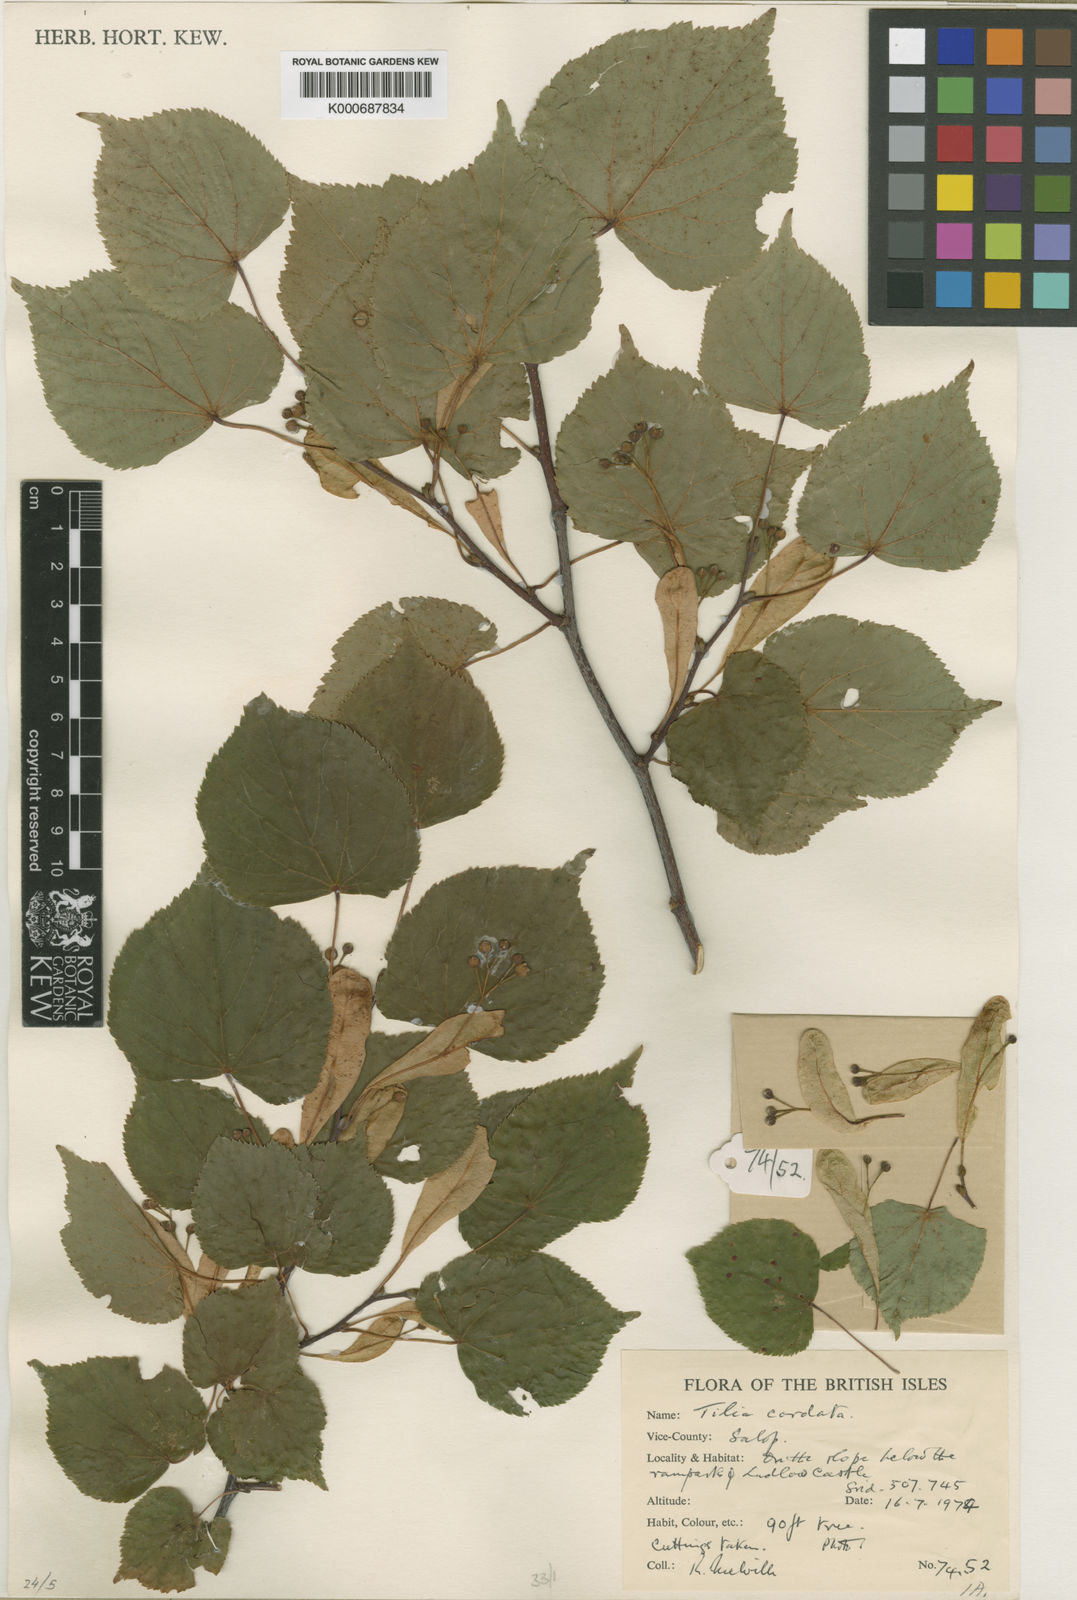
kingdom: Plantae
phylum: Tracheophyta
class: Magnoliopsida
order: Malvales
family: Malvaceae
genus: Tilia
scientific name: Tilia cordata
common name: Small-leaved lime
